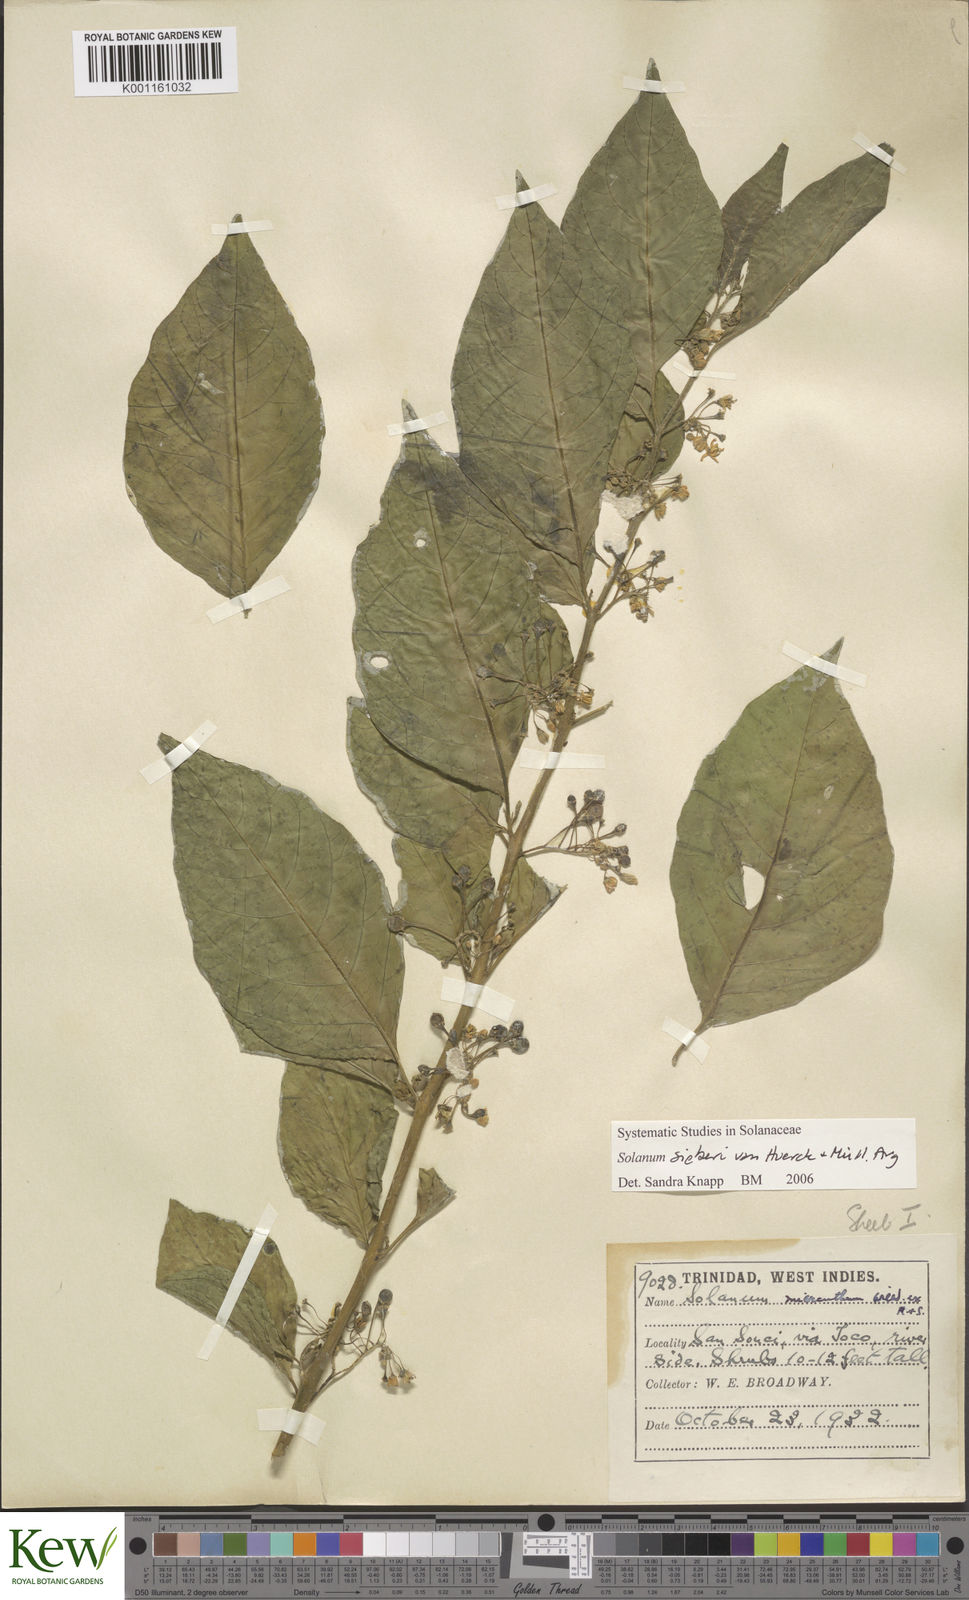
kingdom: Plantae
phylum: Tracheophyta
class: Magnoliopsida
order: Solanales
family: Solanaceae
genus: Solanum
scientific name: Solanum nudum
